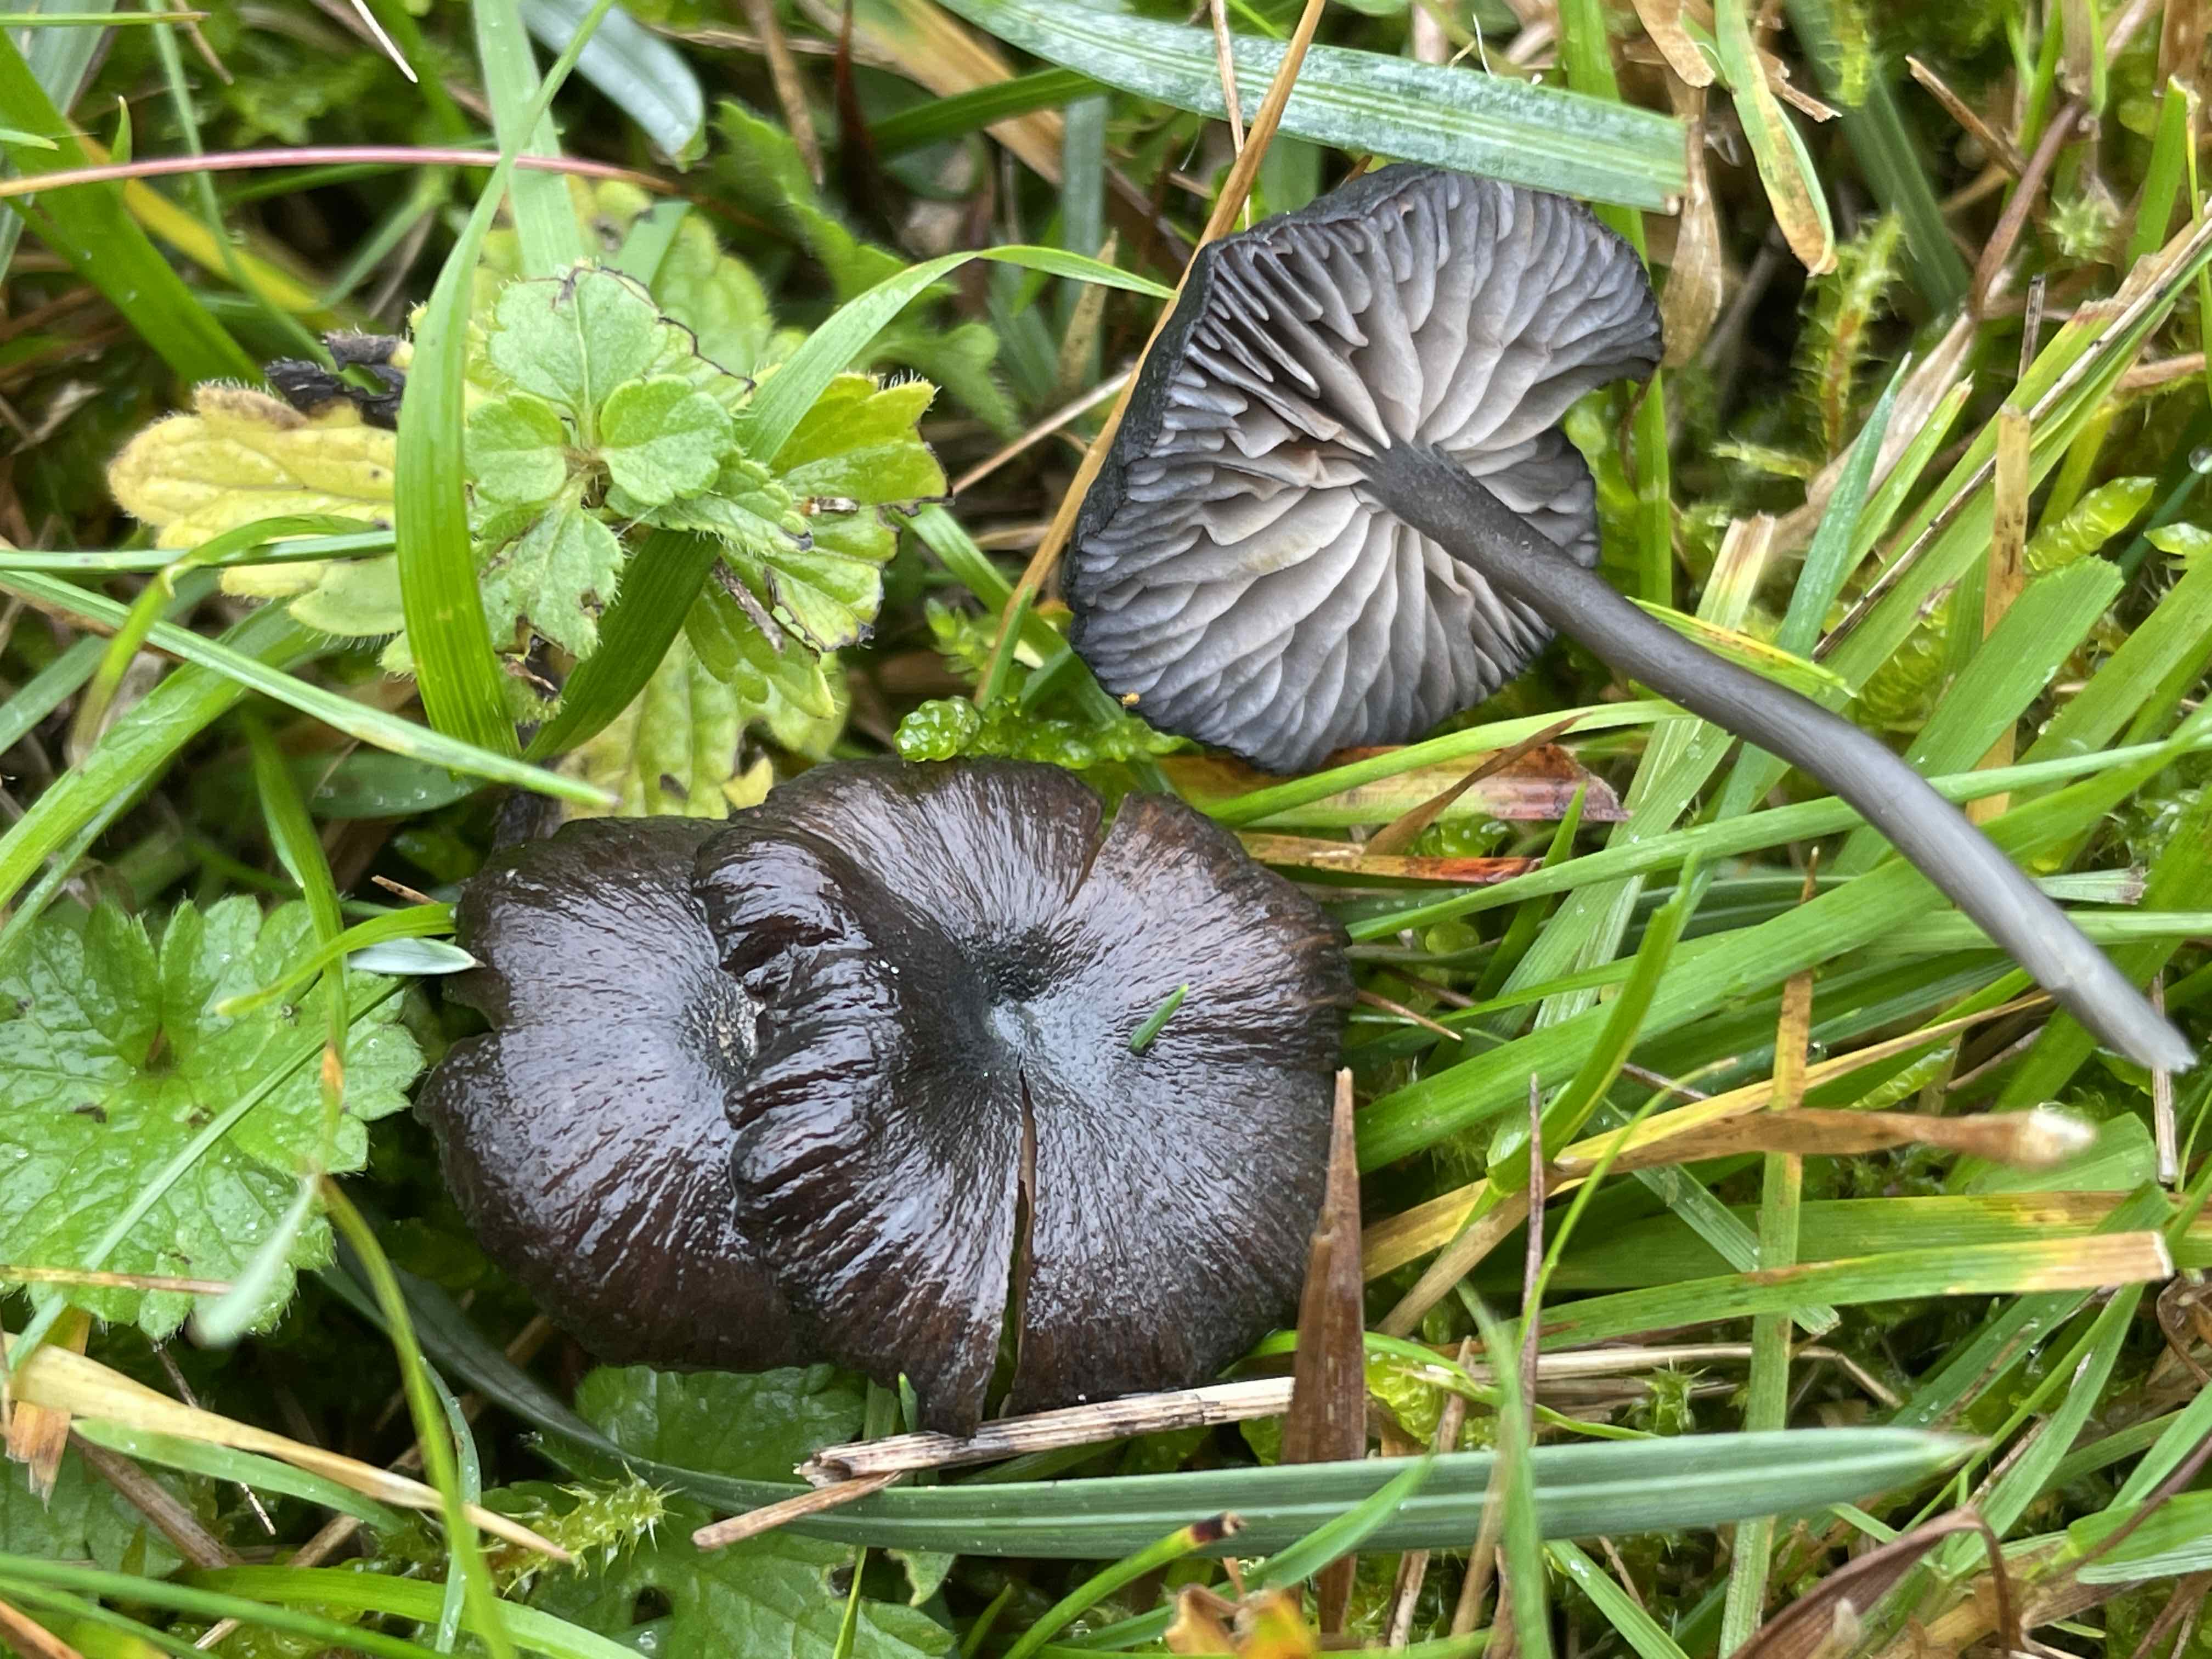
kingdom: Fungi
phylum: Basidiomycota
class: Agaricomycetes
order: Agaricales
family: Entolomataceae
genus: Entoloma
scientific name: Entoloma chalybeum
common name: blåbladet rødblad
